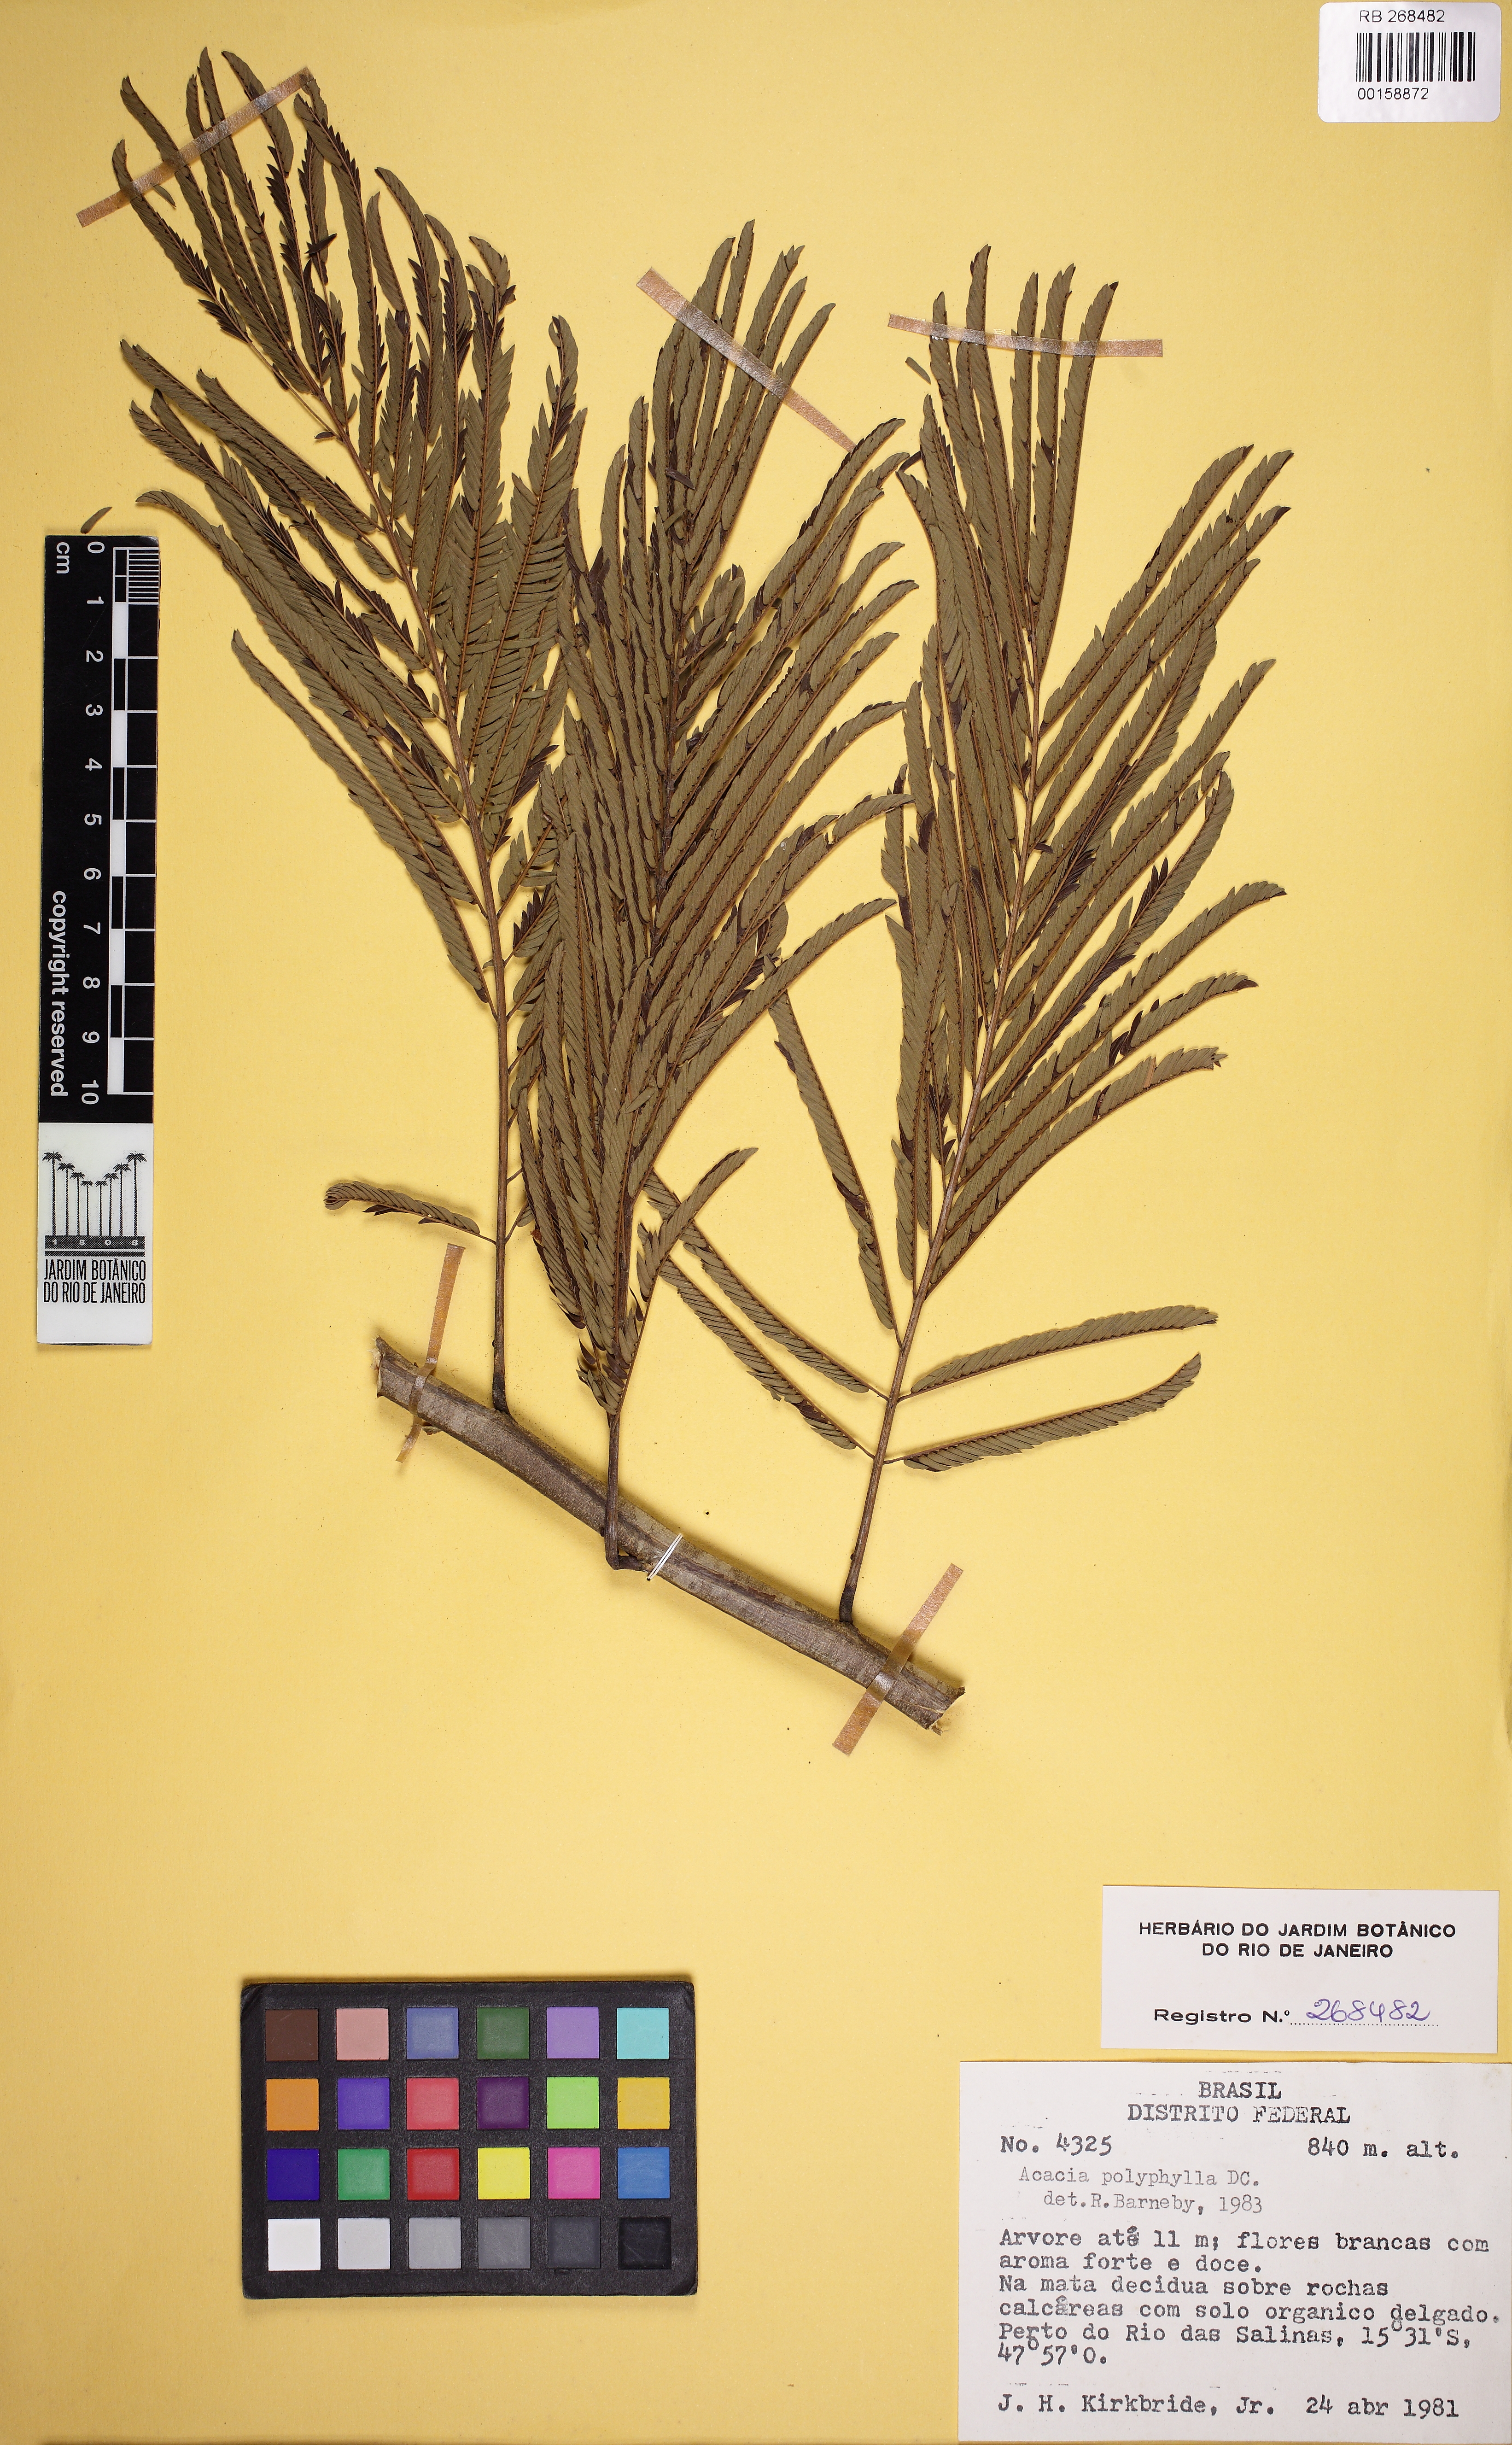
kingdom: Plantae
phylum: Tracheophyta
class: Magnoliopsida
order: Fabales
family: Fabaceae
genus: Senegalia
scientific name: Senegalia polyphylla
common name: White-tamarind
